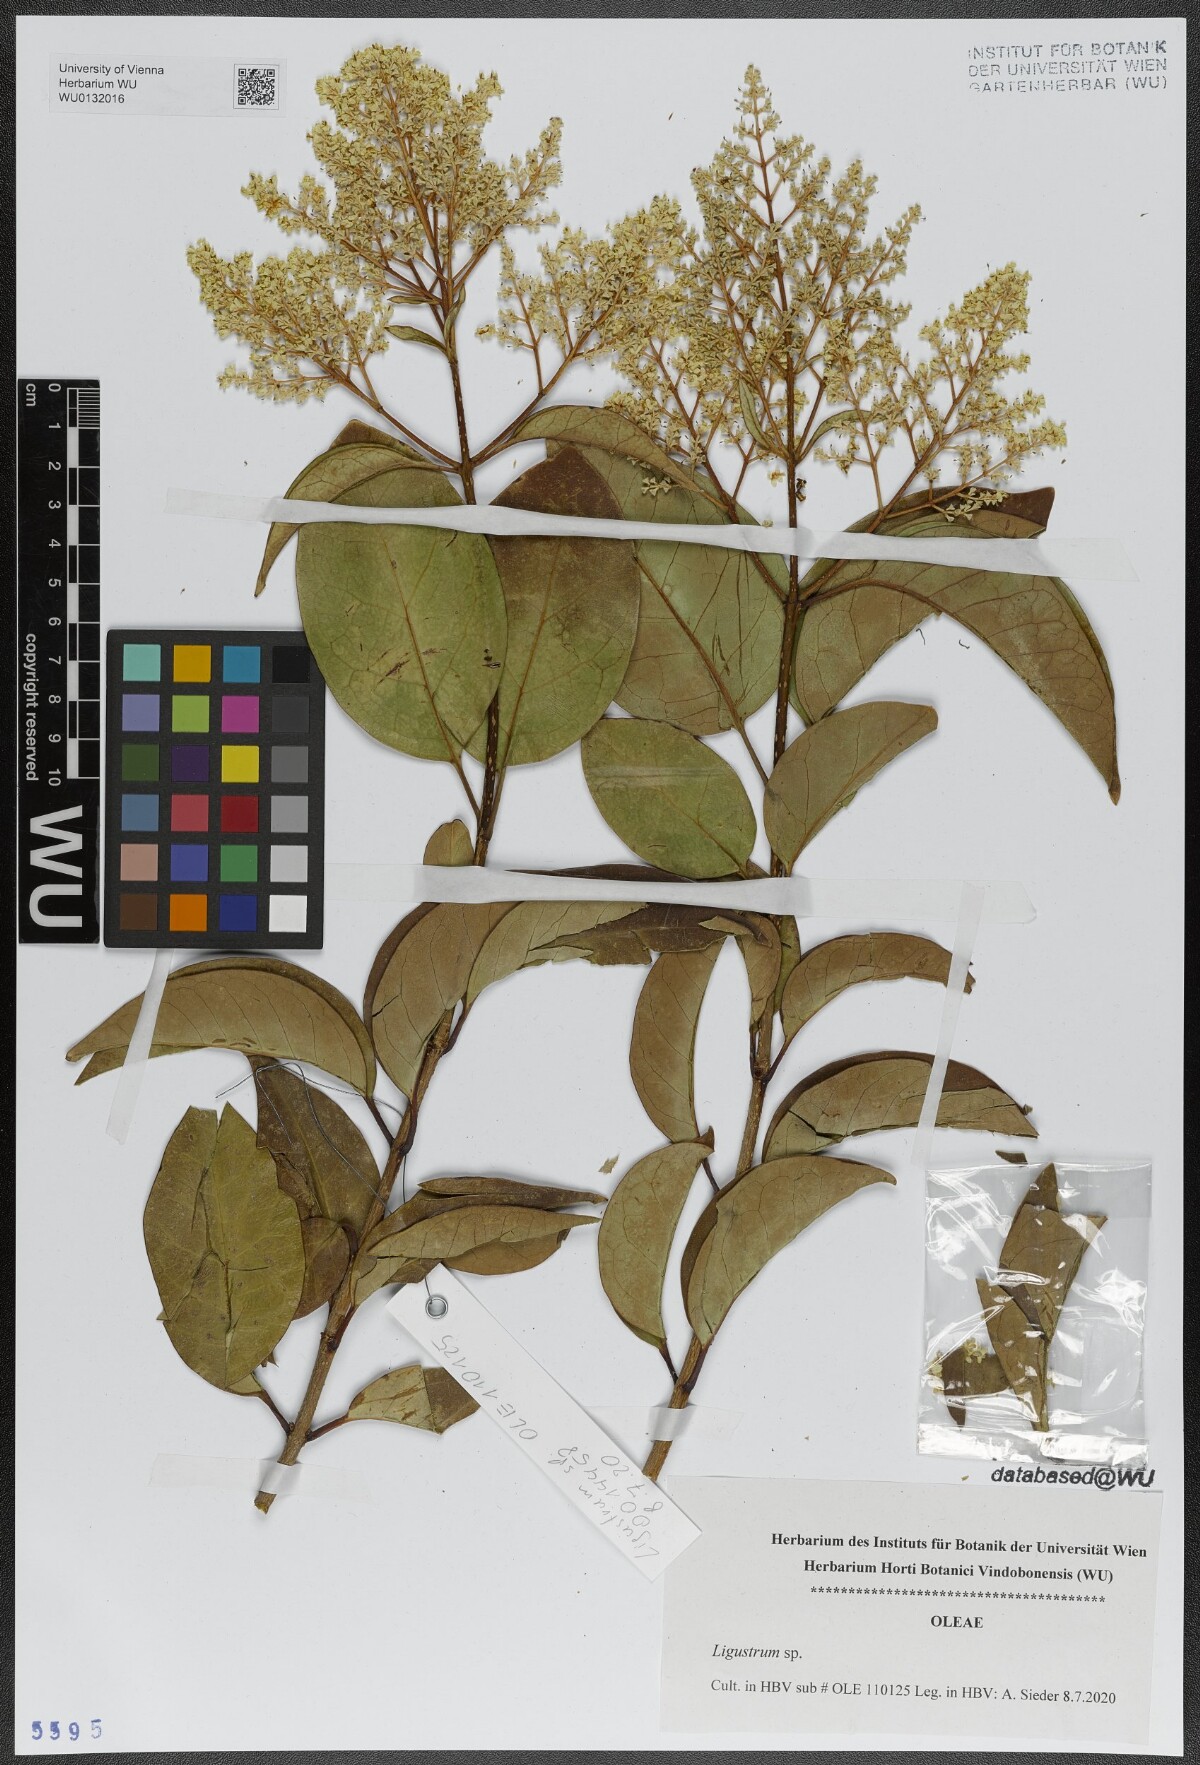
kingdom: Plantae
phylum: Tracheophyta
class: Magnoliopsida
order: Lamiales
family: Oleaceae
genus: Ligustrum
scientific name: Ligustrum
